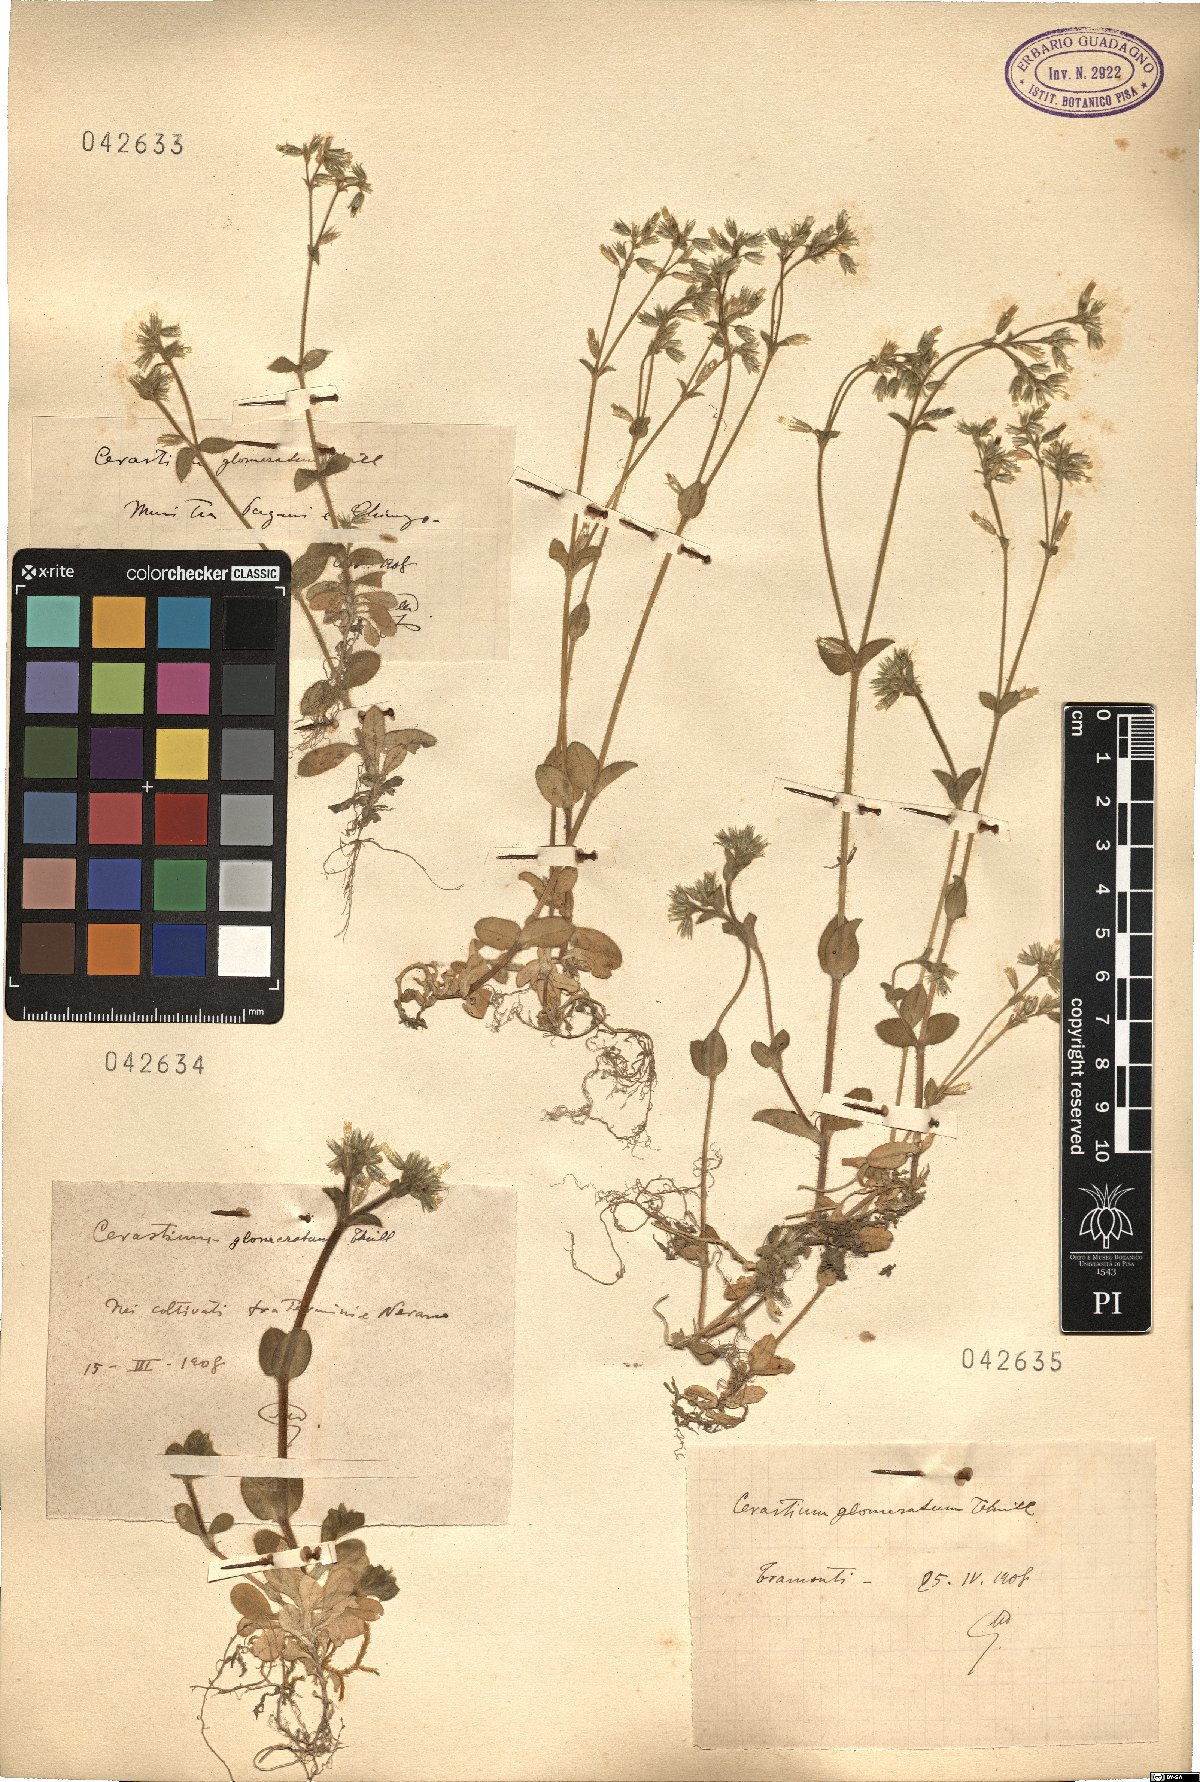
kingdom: Plantae
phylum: Tracheophyta
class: Magnoliopsida
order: Caryophyllales
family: Caryophyllaceae
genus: Cerastium
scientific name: Cerastium glomeratum
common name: Sticky chickweed
